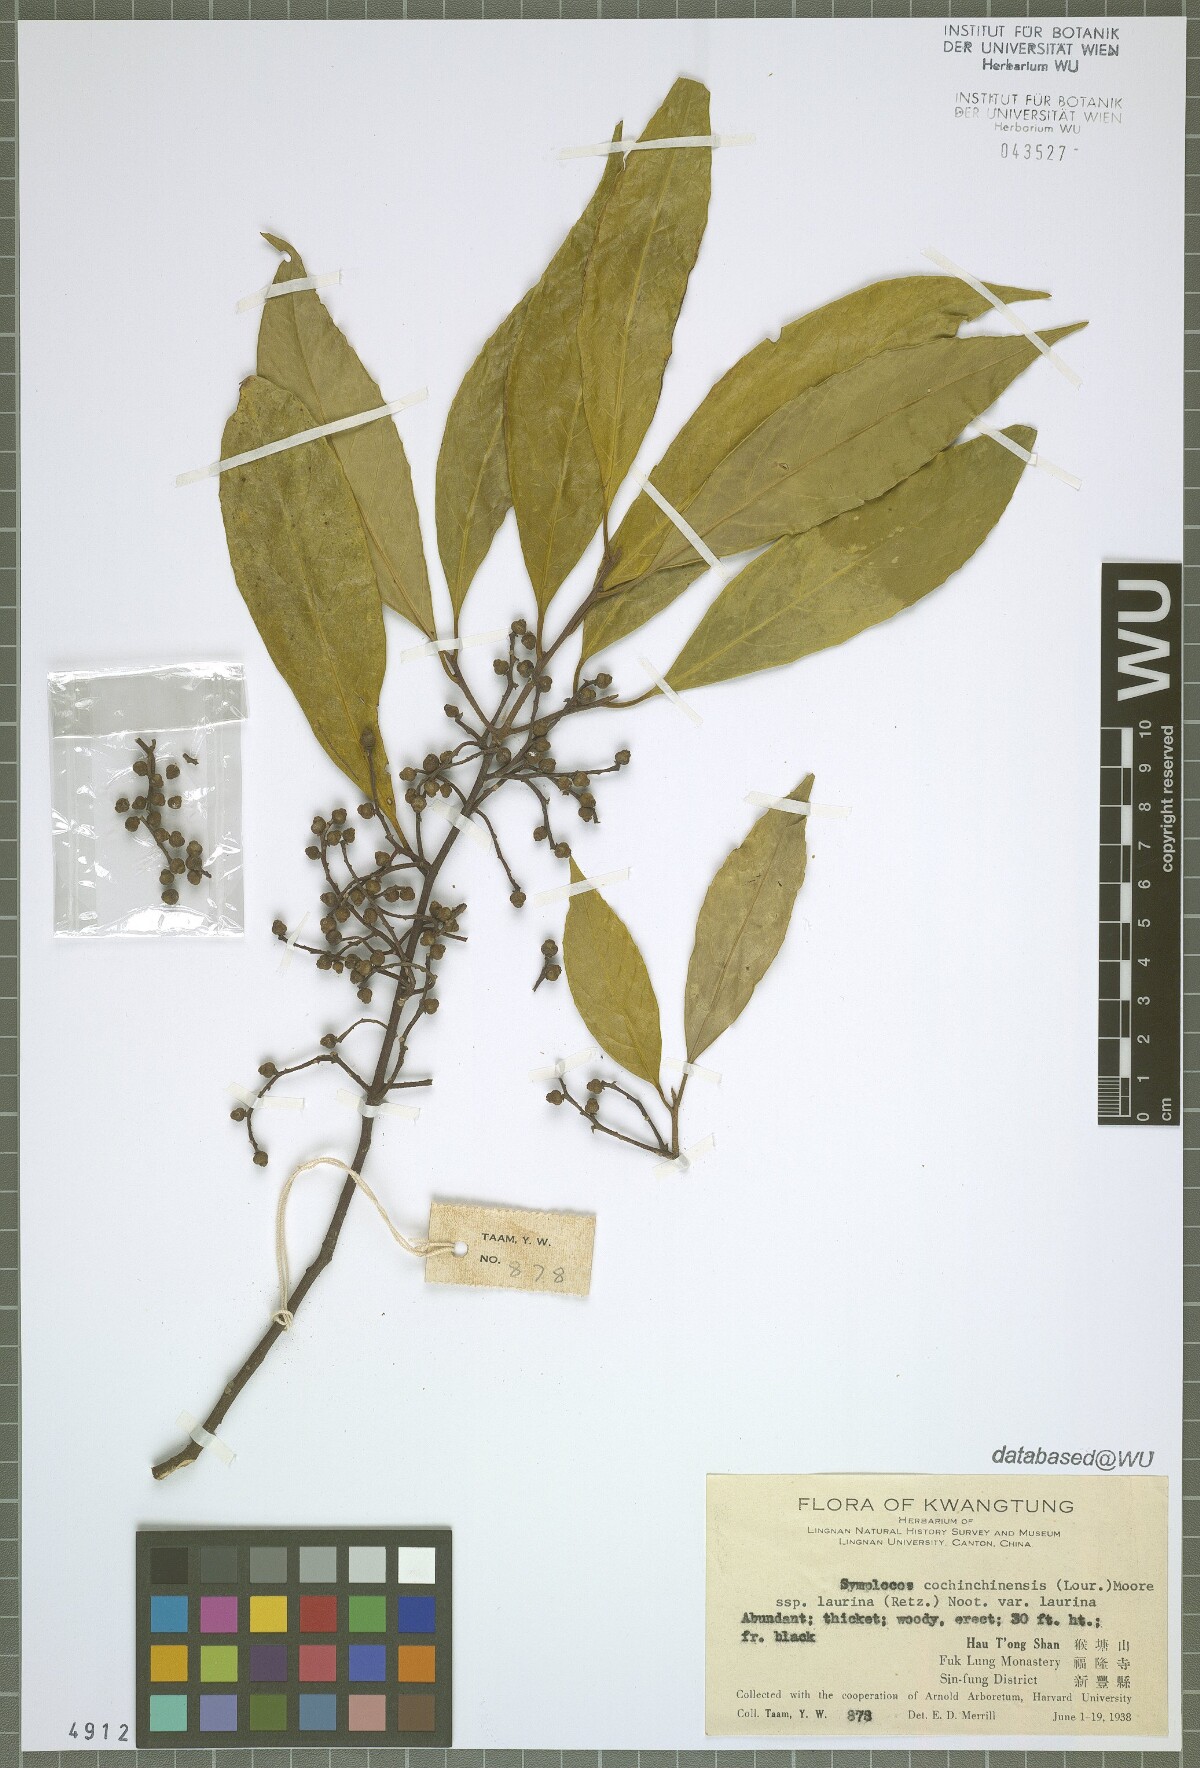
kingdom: Plantae
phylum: Tracheophyta
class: Magnoliopsida
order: Ericales
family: Symplocaceae
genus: Symplocos
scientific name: Symplocos cochinchinensis
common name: Buff hazelwood
